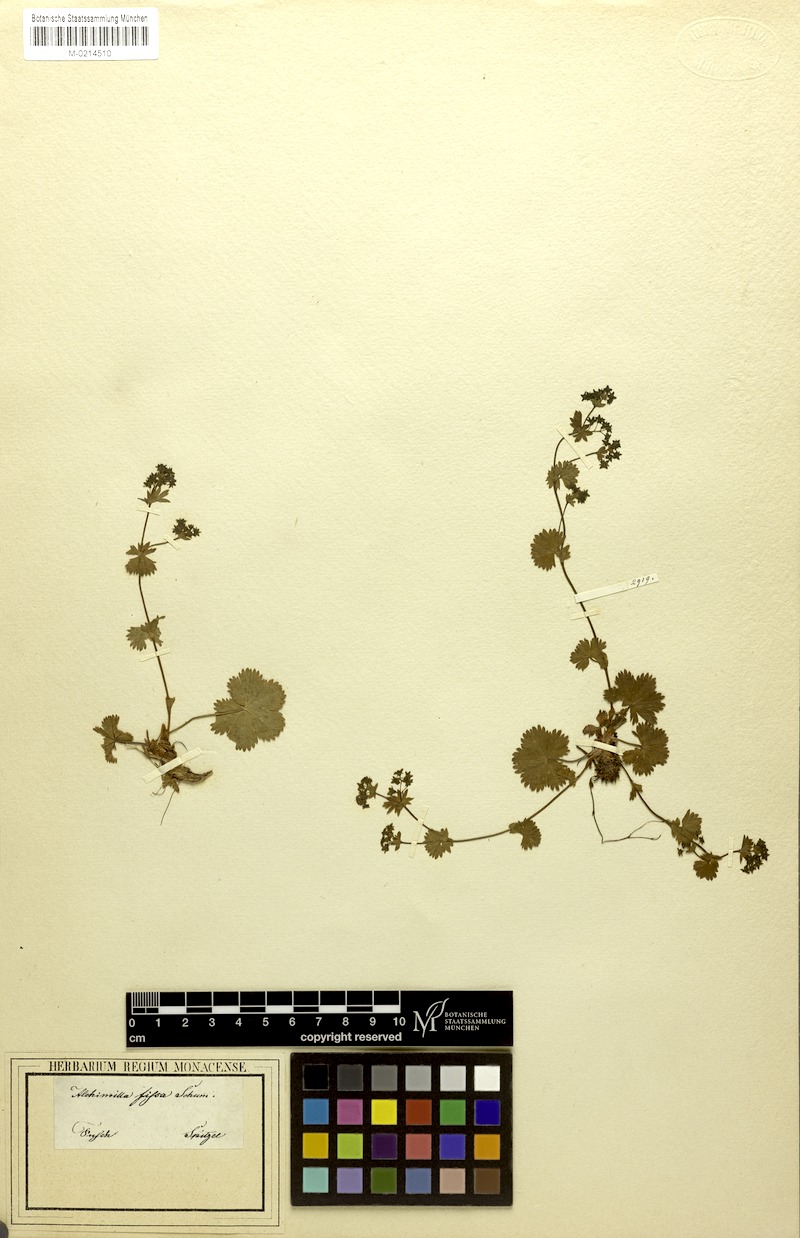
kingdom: Plantae
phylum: Tracheophyta
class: Magnoliopsida
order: Rosales
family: Rosaceae
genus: Alchemilla
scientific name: Alchemilla fissa
